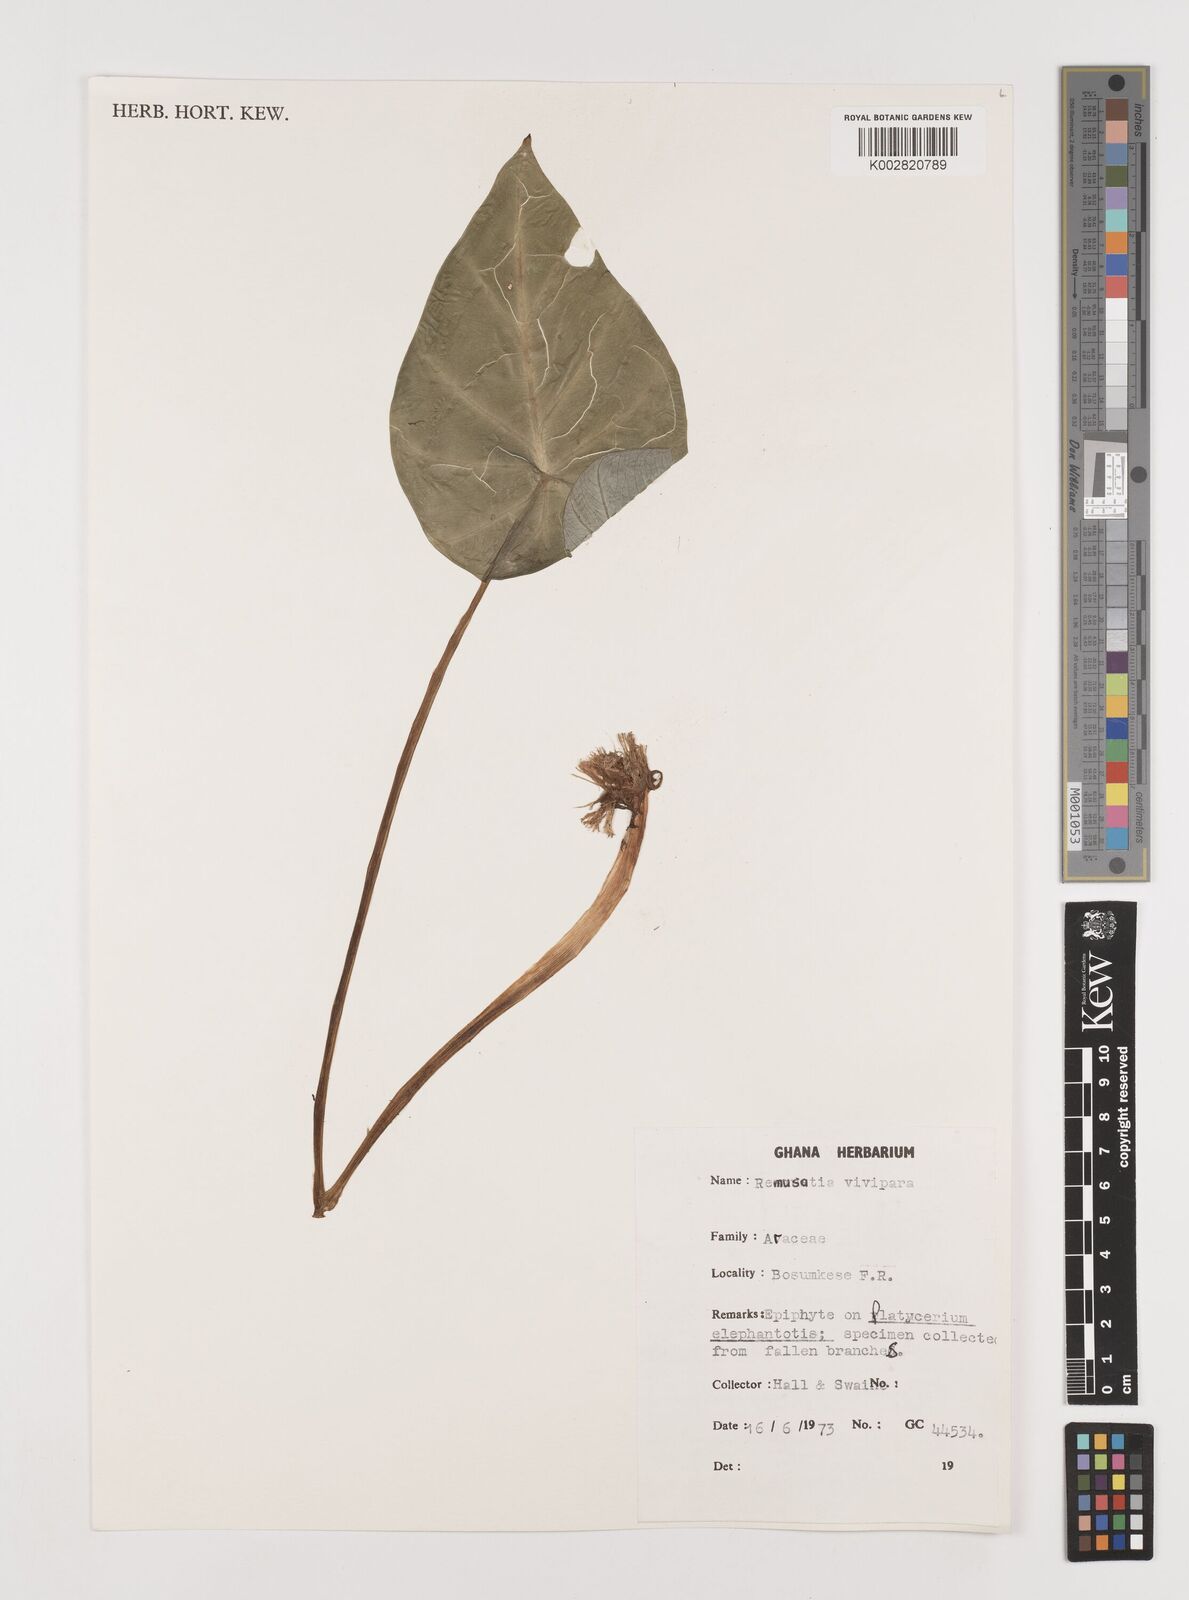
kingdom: Plantae
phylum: Tracheophyta
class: Liliopsida
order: Alismatales
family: Araceae
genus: Remusatia
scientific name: Remusatia vivipara
